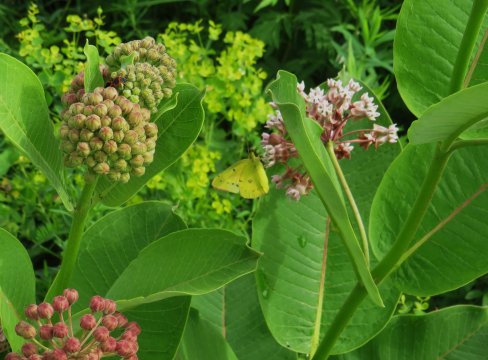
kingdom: Animalia
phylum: Arthropoda
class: Insecta
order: Lepidoptera
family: Pieridae
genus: Colias
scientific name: Colias eurytheme
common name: Orange Sulphur
